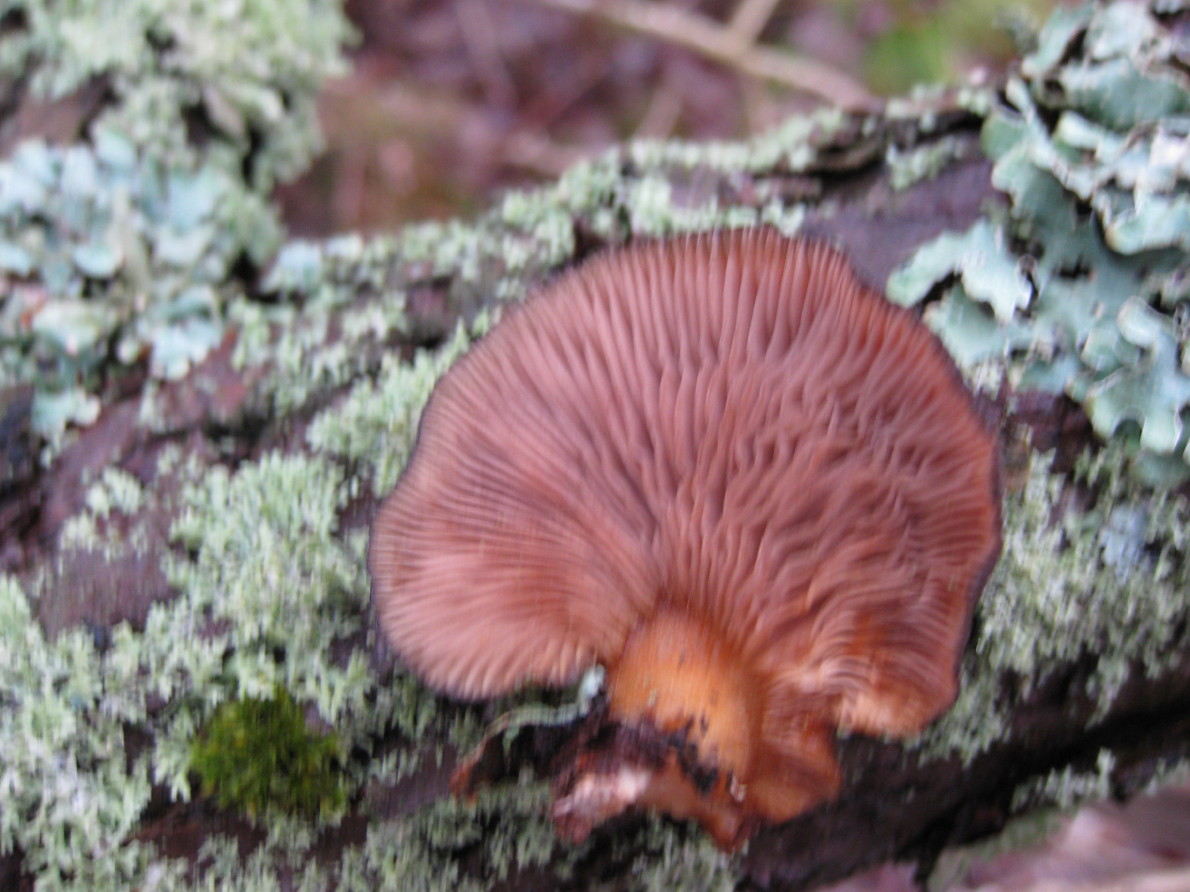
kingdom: Fungi
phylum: Basidiomycota
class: Agaricomycetes
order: Agaricales
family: Sarcomyxaceae
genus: Sarcomyxa
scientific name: Sarcomyxa serotina
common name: gummihat
